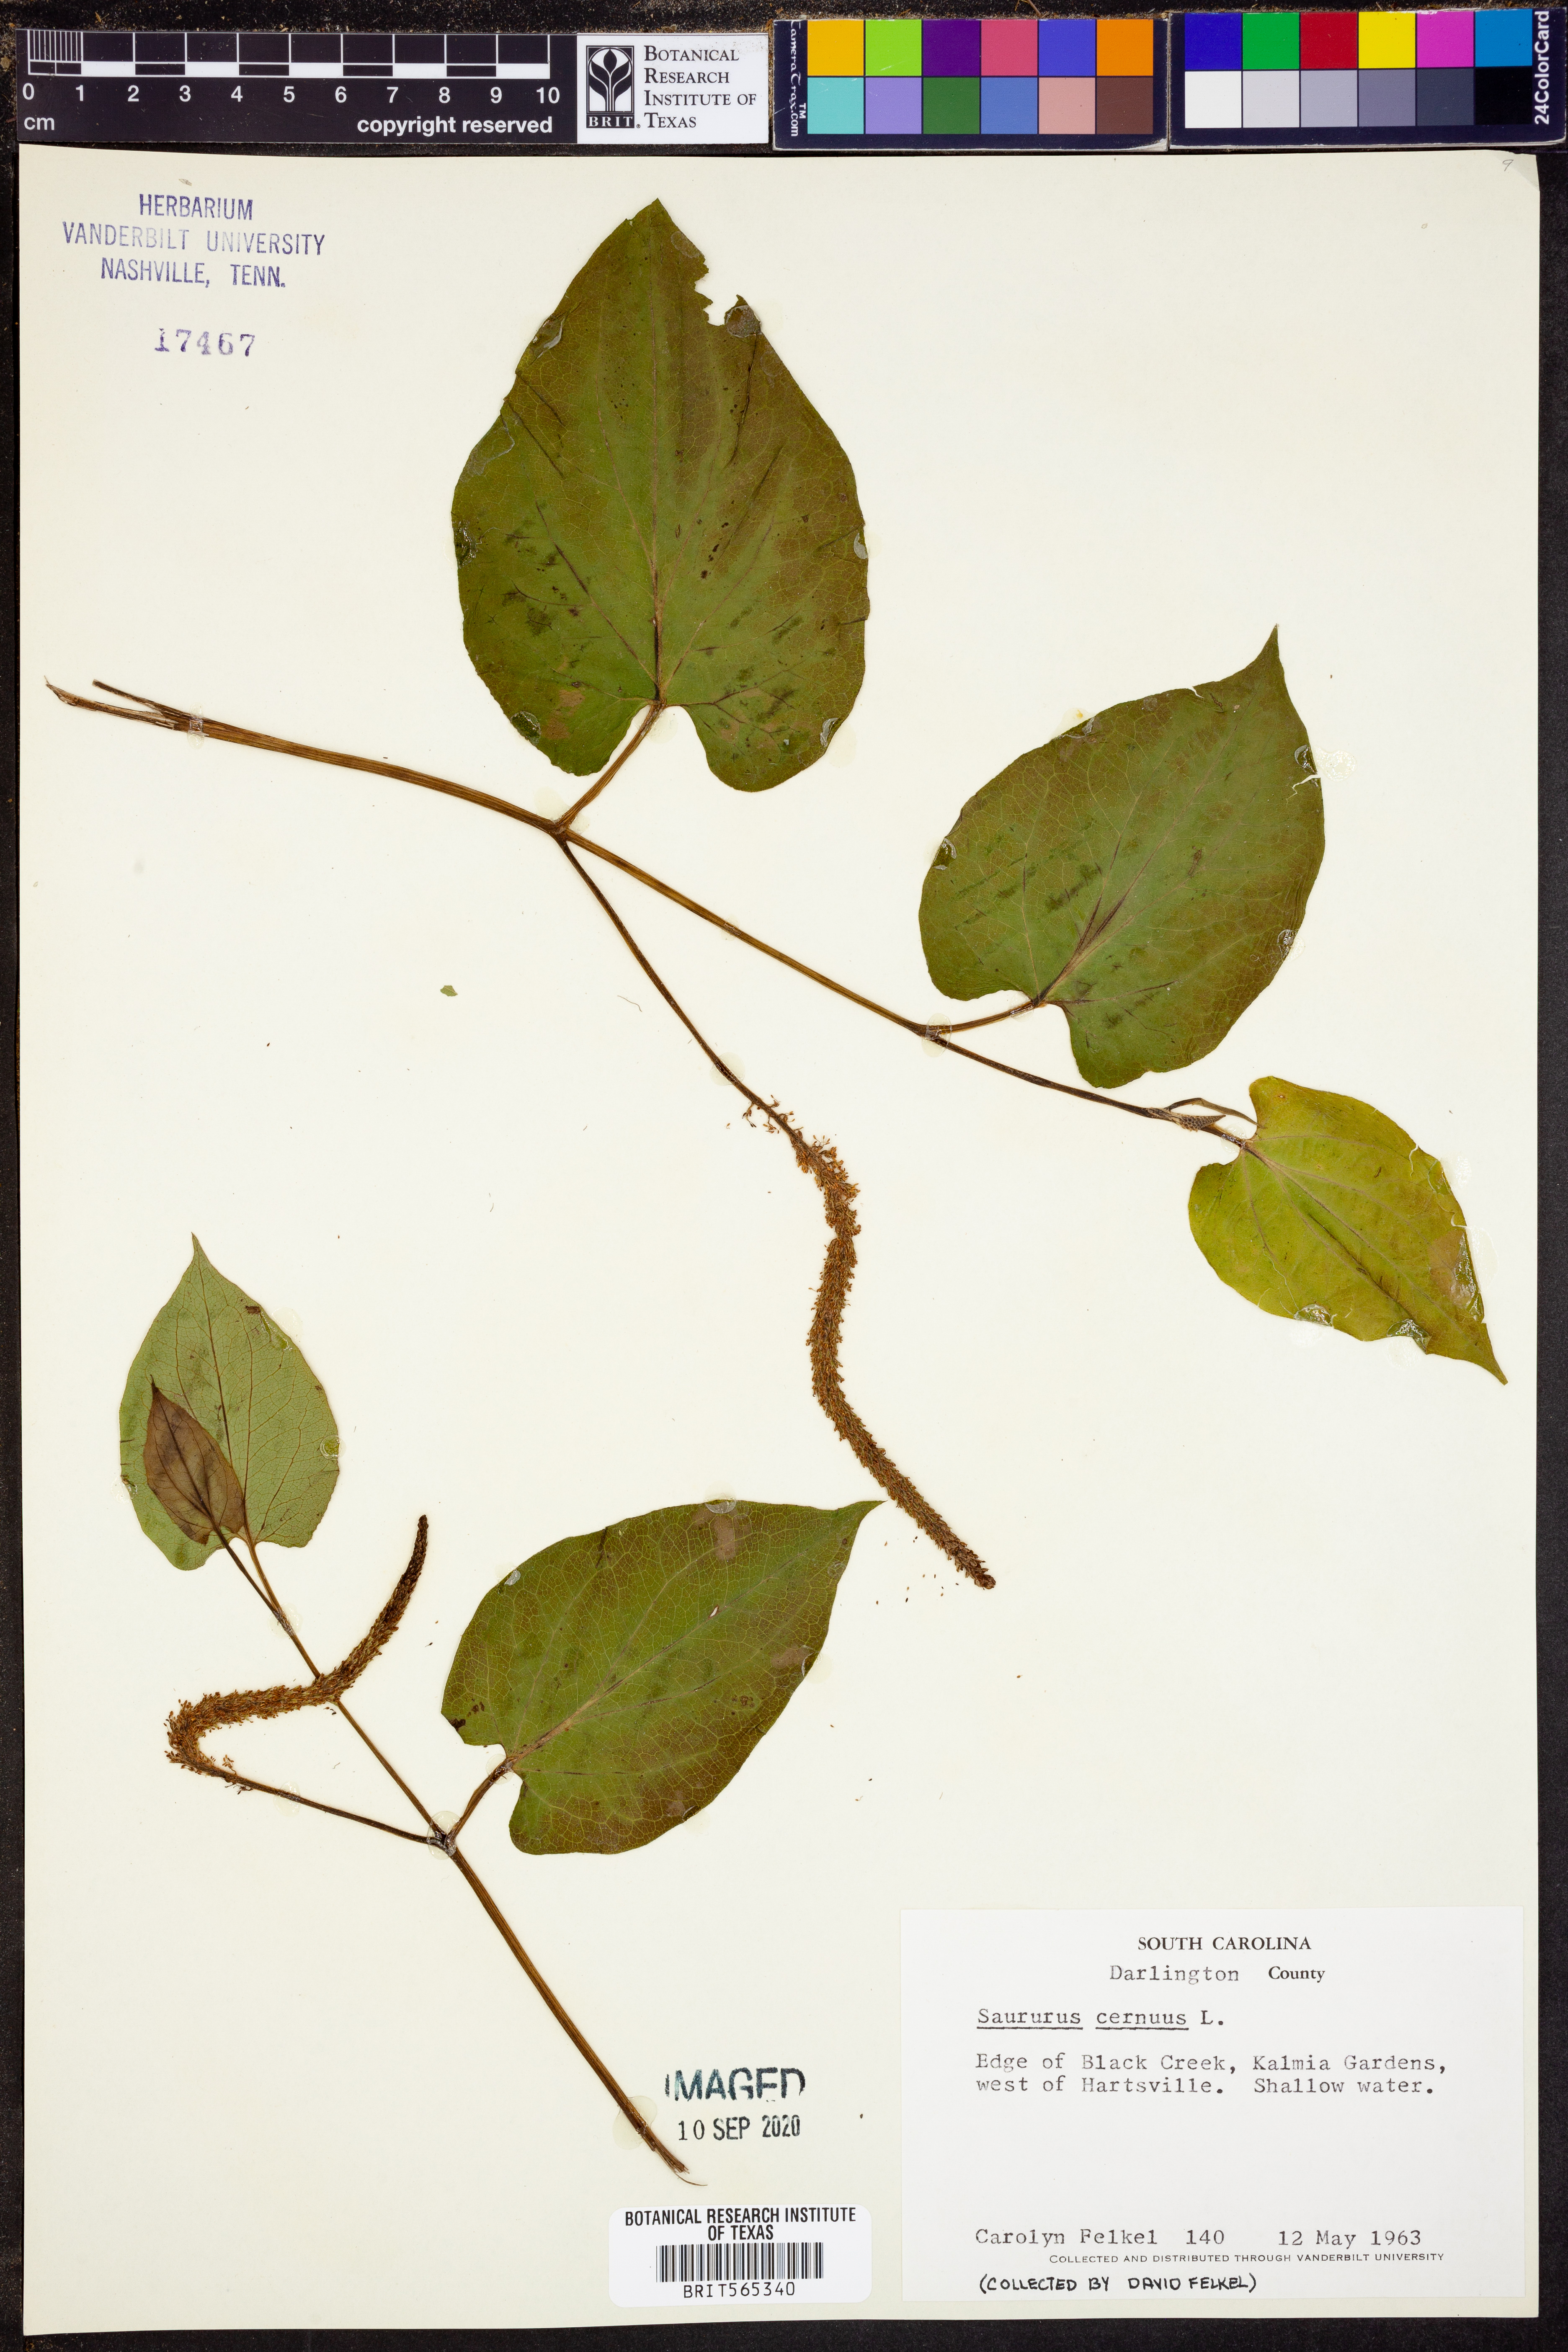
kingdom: Plantae
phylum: Tracheophyta
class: Magnoliopsida
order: Piperales
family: Saururaceae
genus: Saururus
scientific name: Saururus cernuus
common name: Lizard's-tail
